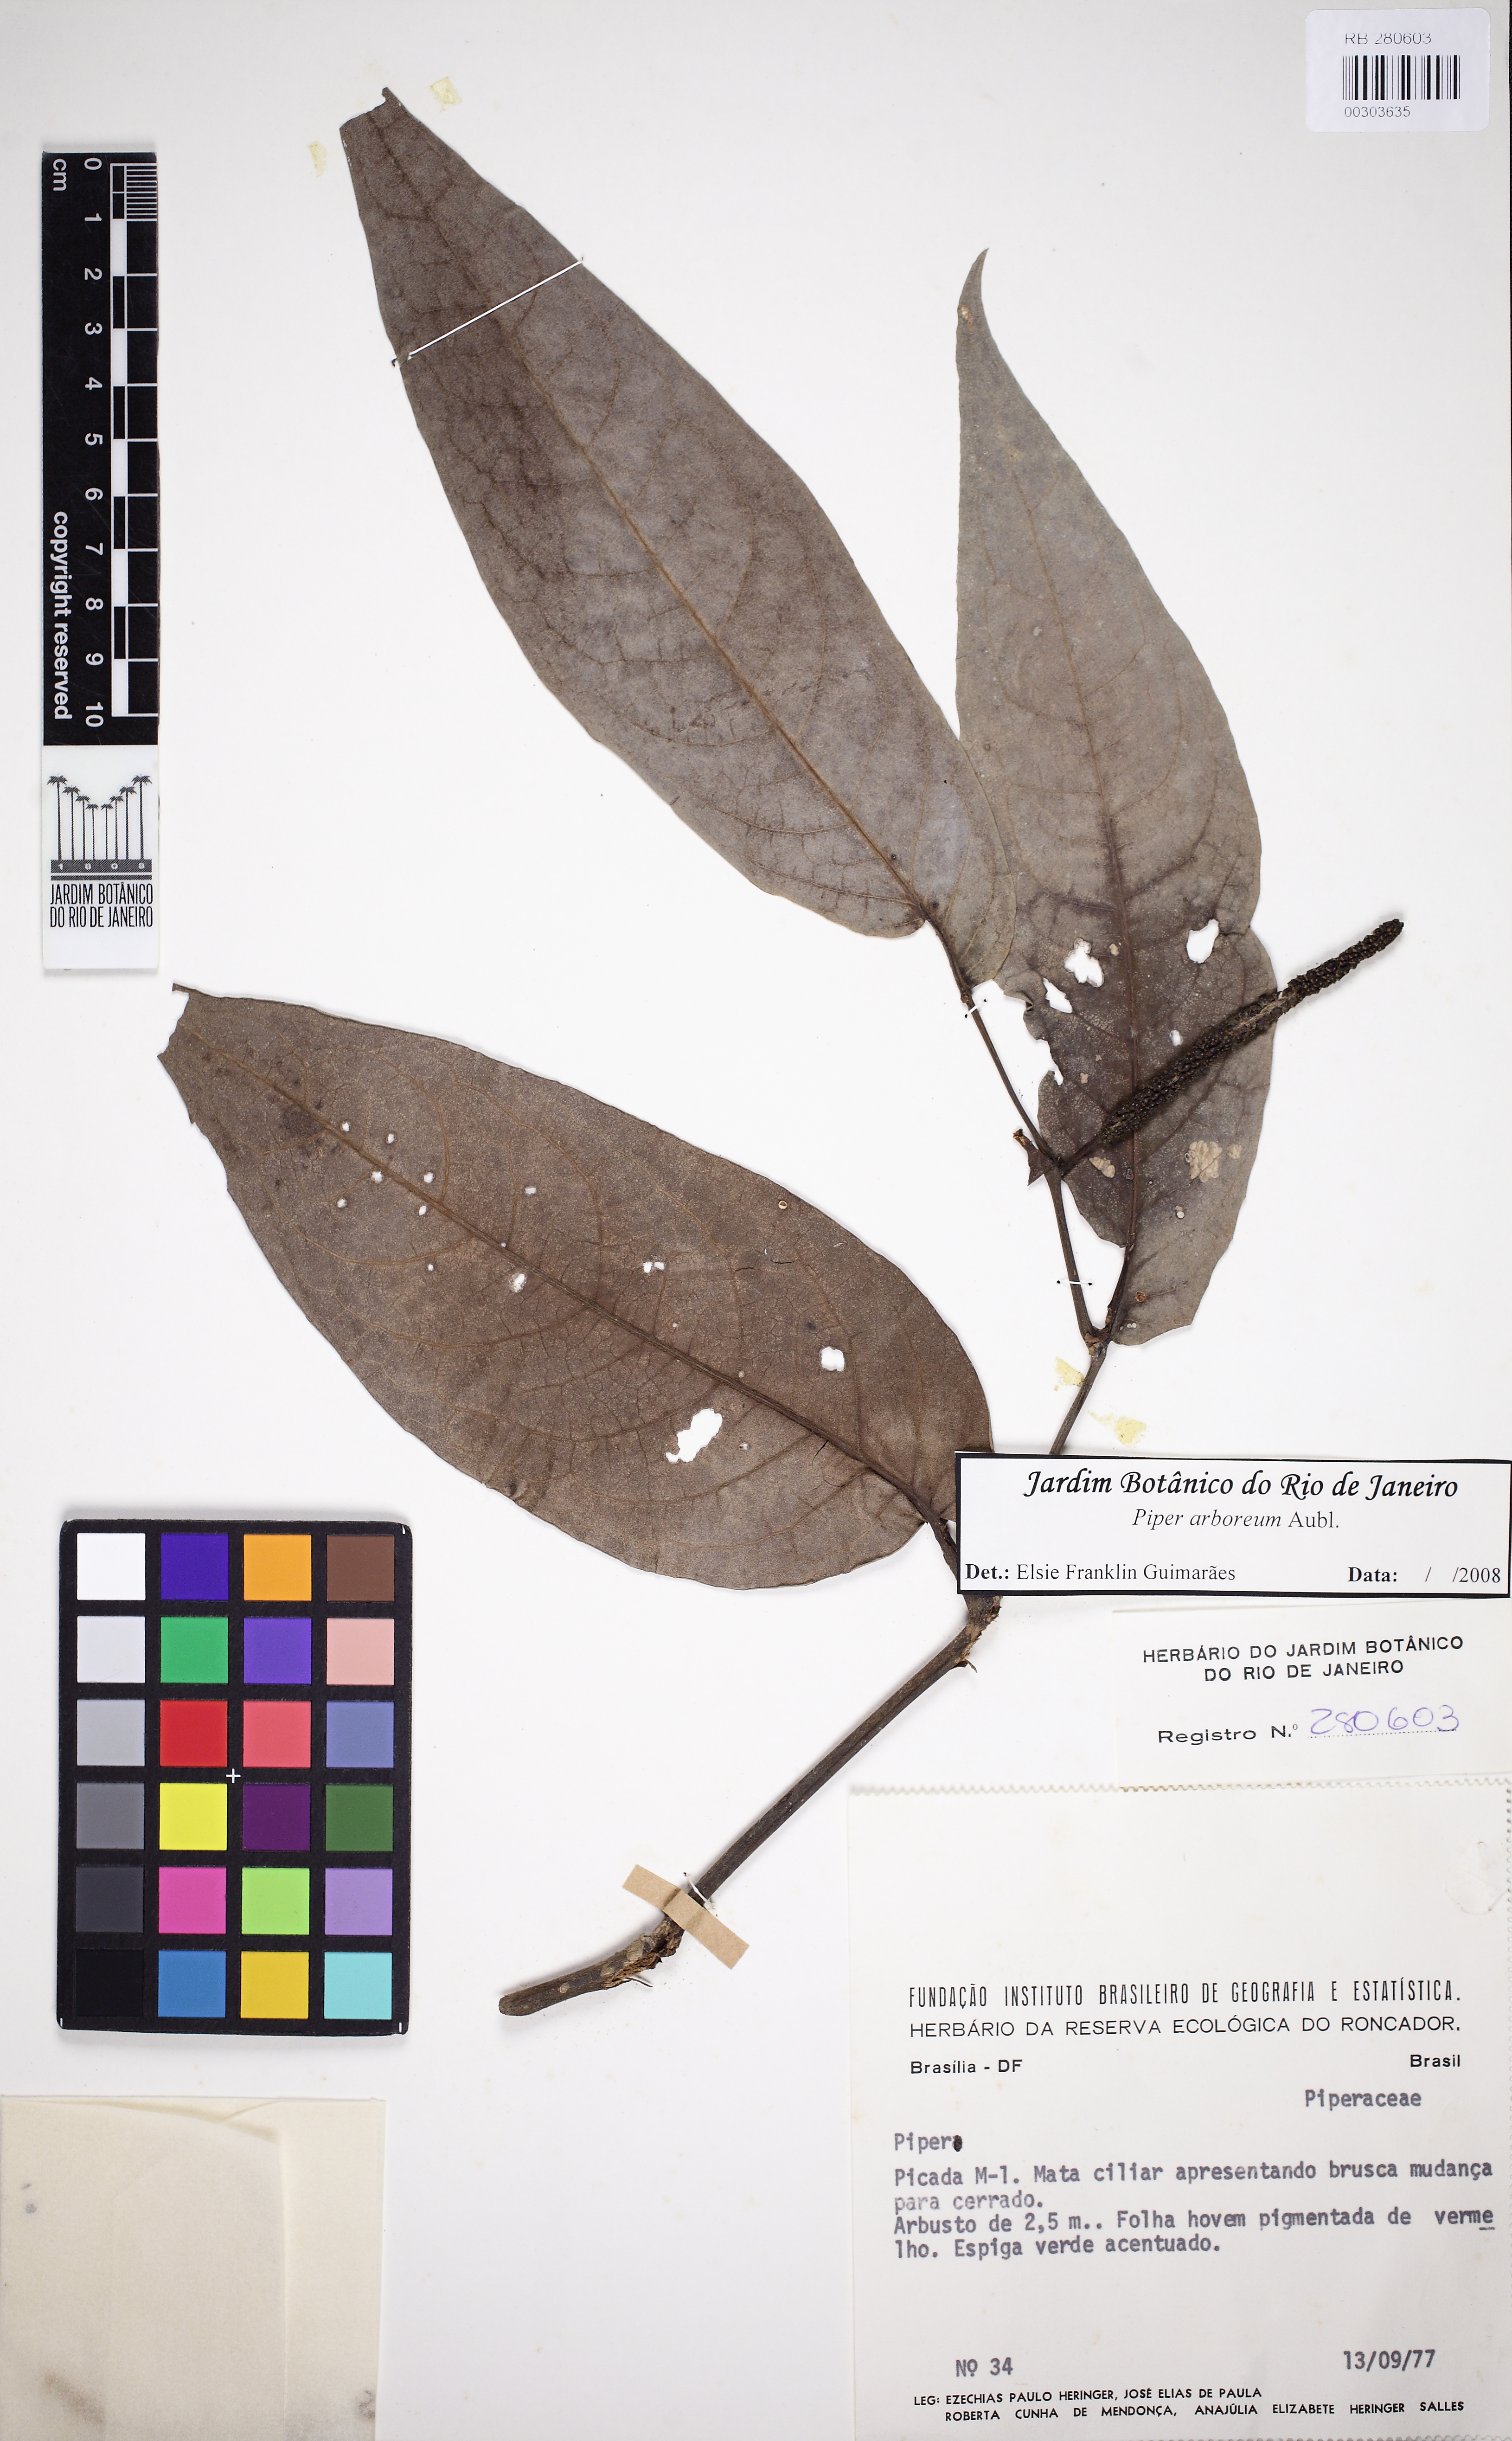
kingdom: Plantae
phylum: Tracheophyta
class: Magnoliopsida
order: Piperales
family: Piperaceae
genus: Piper
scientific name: Piper arboreum
